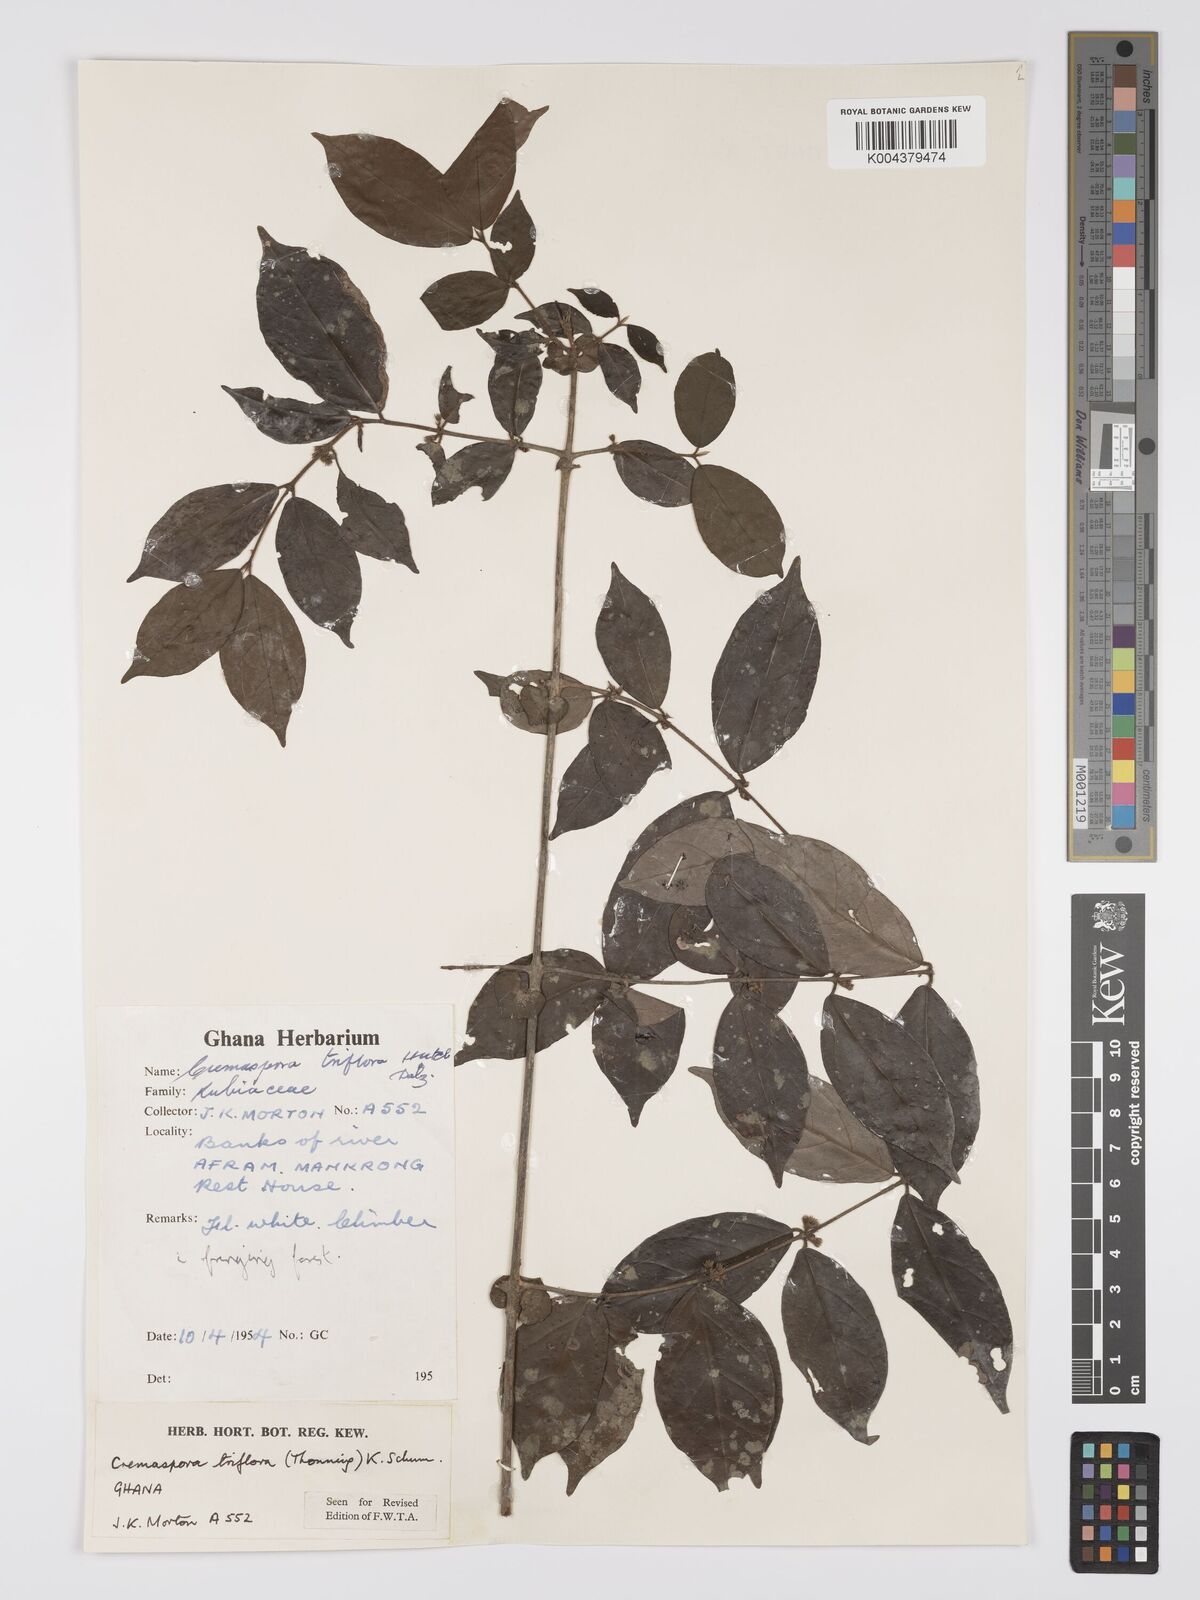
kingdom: Plantae
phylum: Tracheophyta
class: Magnoliopsida
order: Gentianales
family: Rubiaceae
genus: Cremaspora
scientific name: Cremaspora triflora
